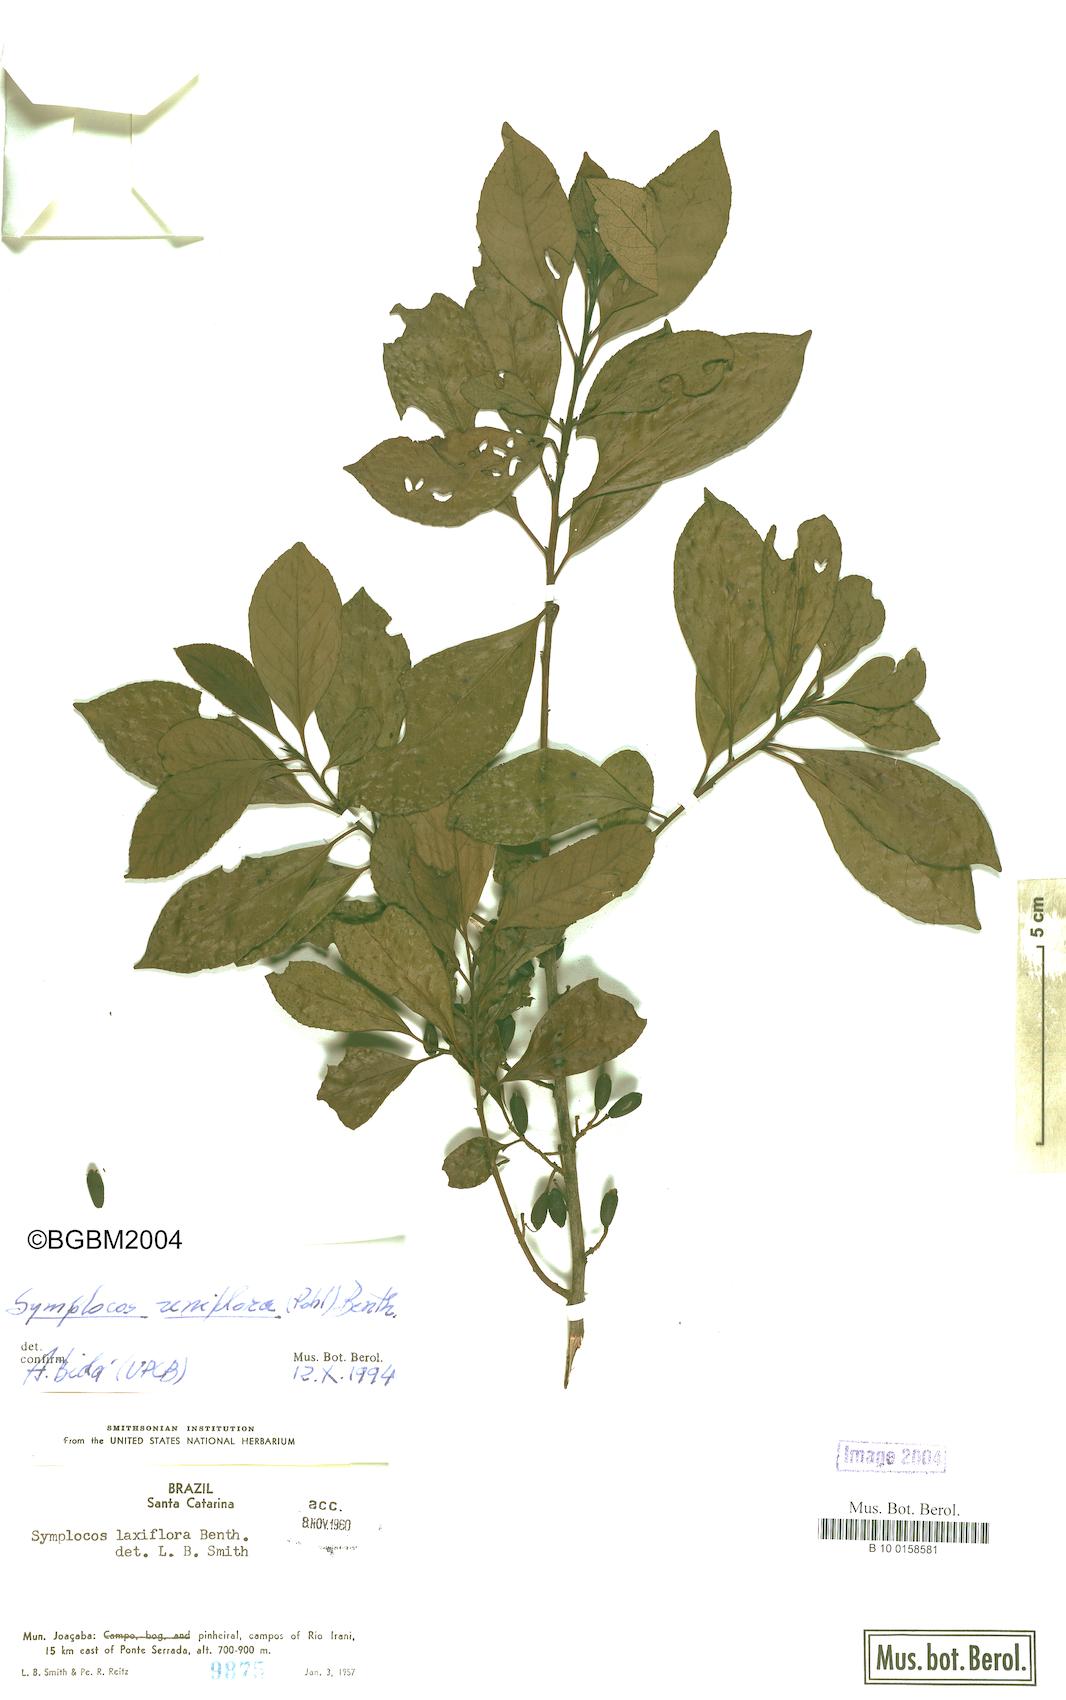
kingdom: Plantae
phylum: Tracheophyta
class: Magnoliopsida
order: Ericales
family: Symplocaceae
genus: Symplocos
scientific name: Symplocos laxiflora
